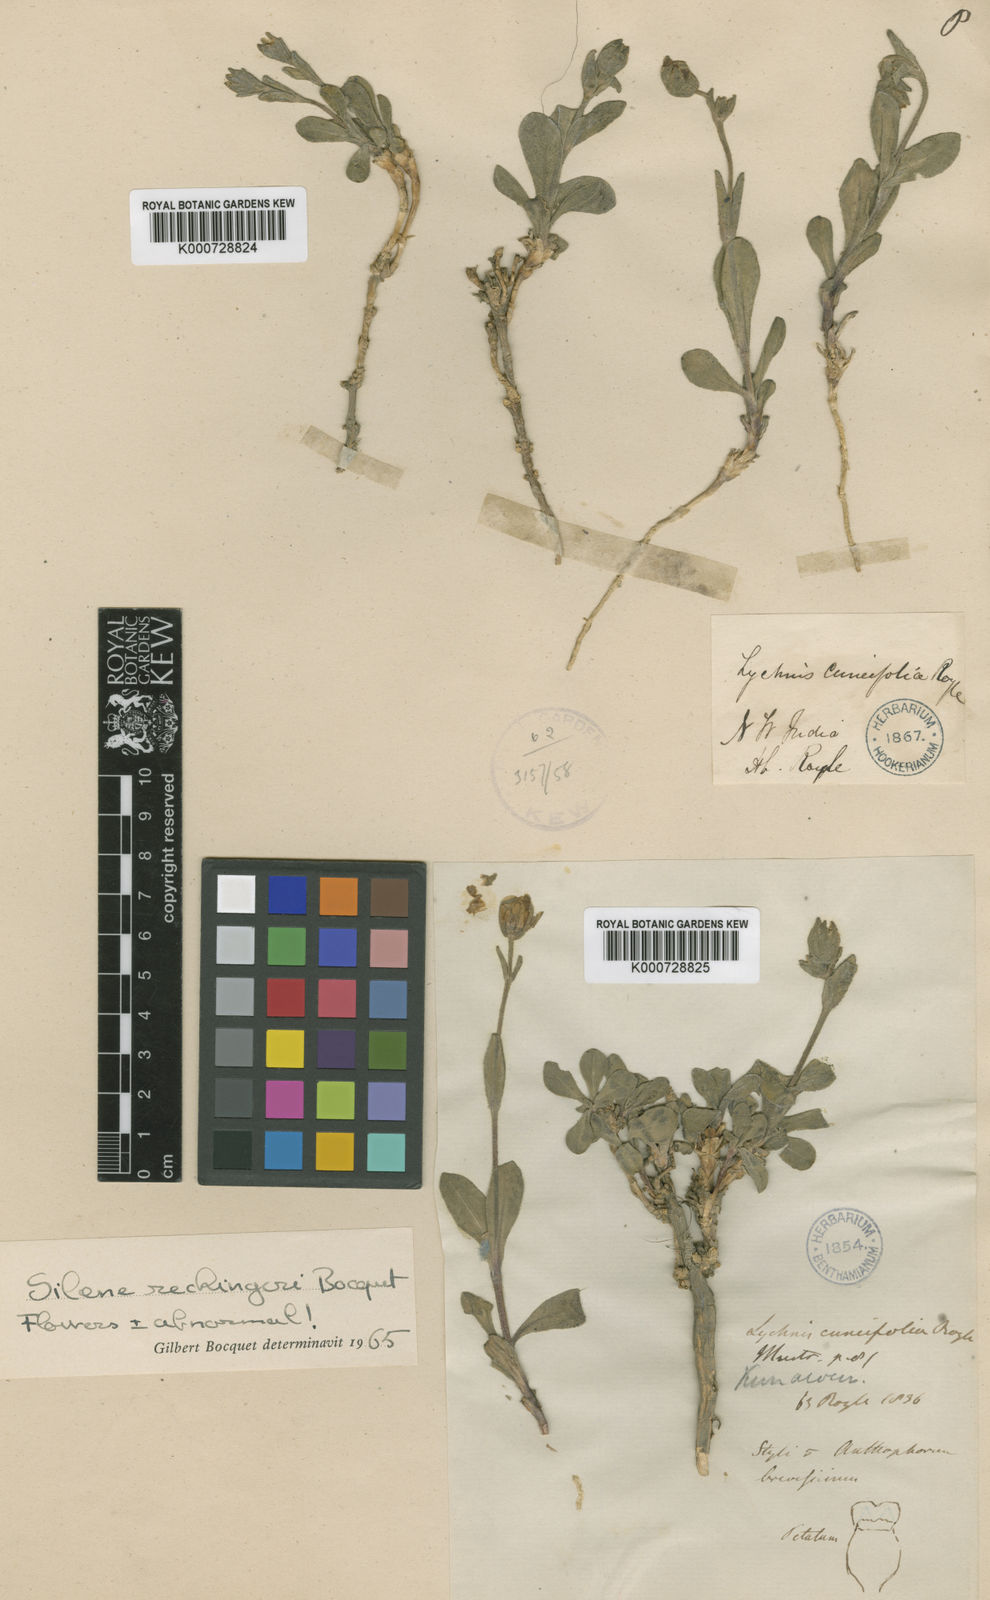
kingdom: Plantae
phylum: Tracheophyta
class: Magnoliopsida
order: Caryophyllales
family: Caryophyllaceae
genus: Silene
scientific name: Silene rechingeri
